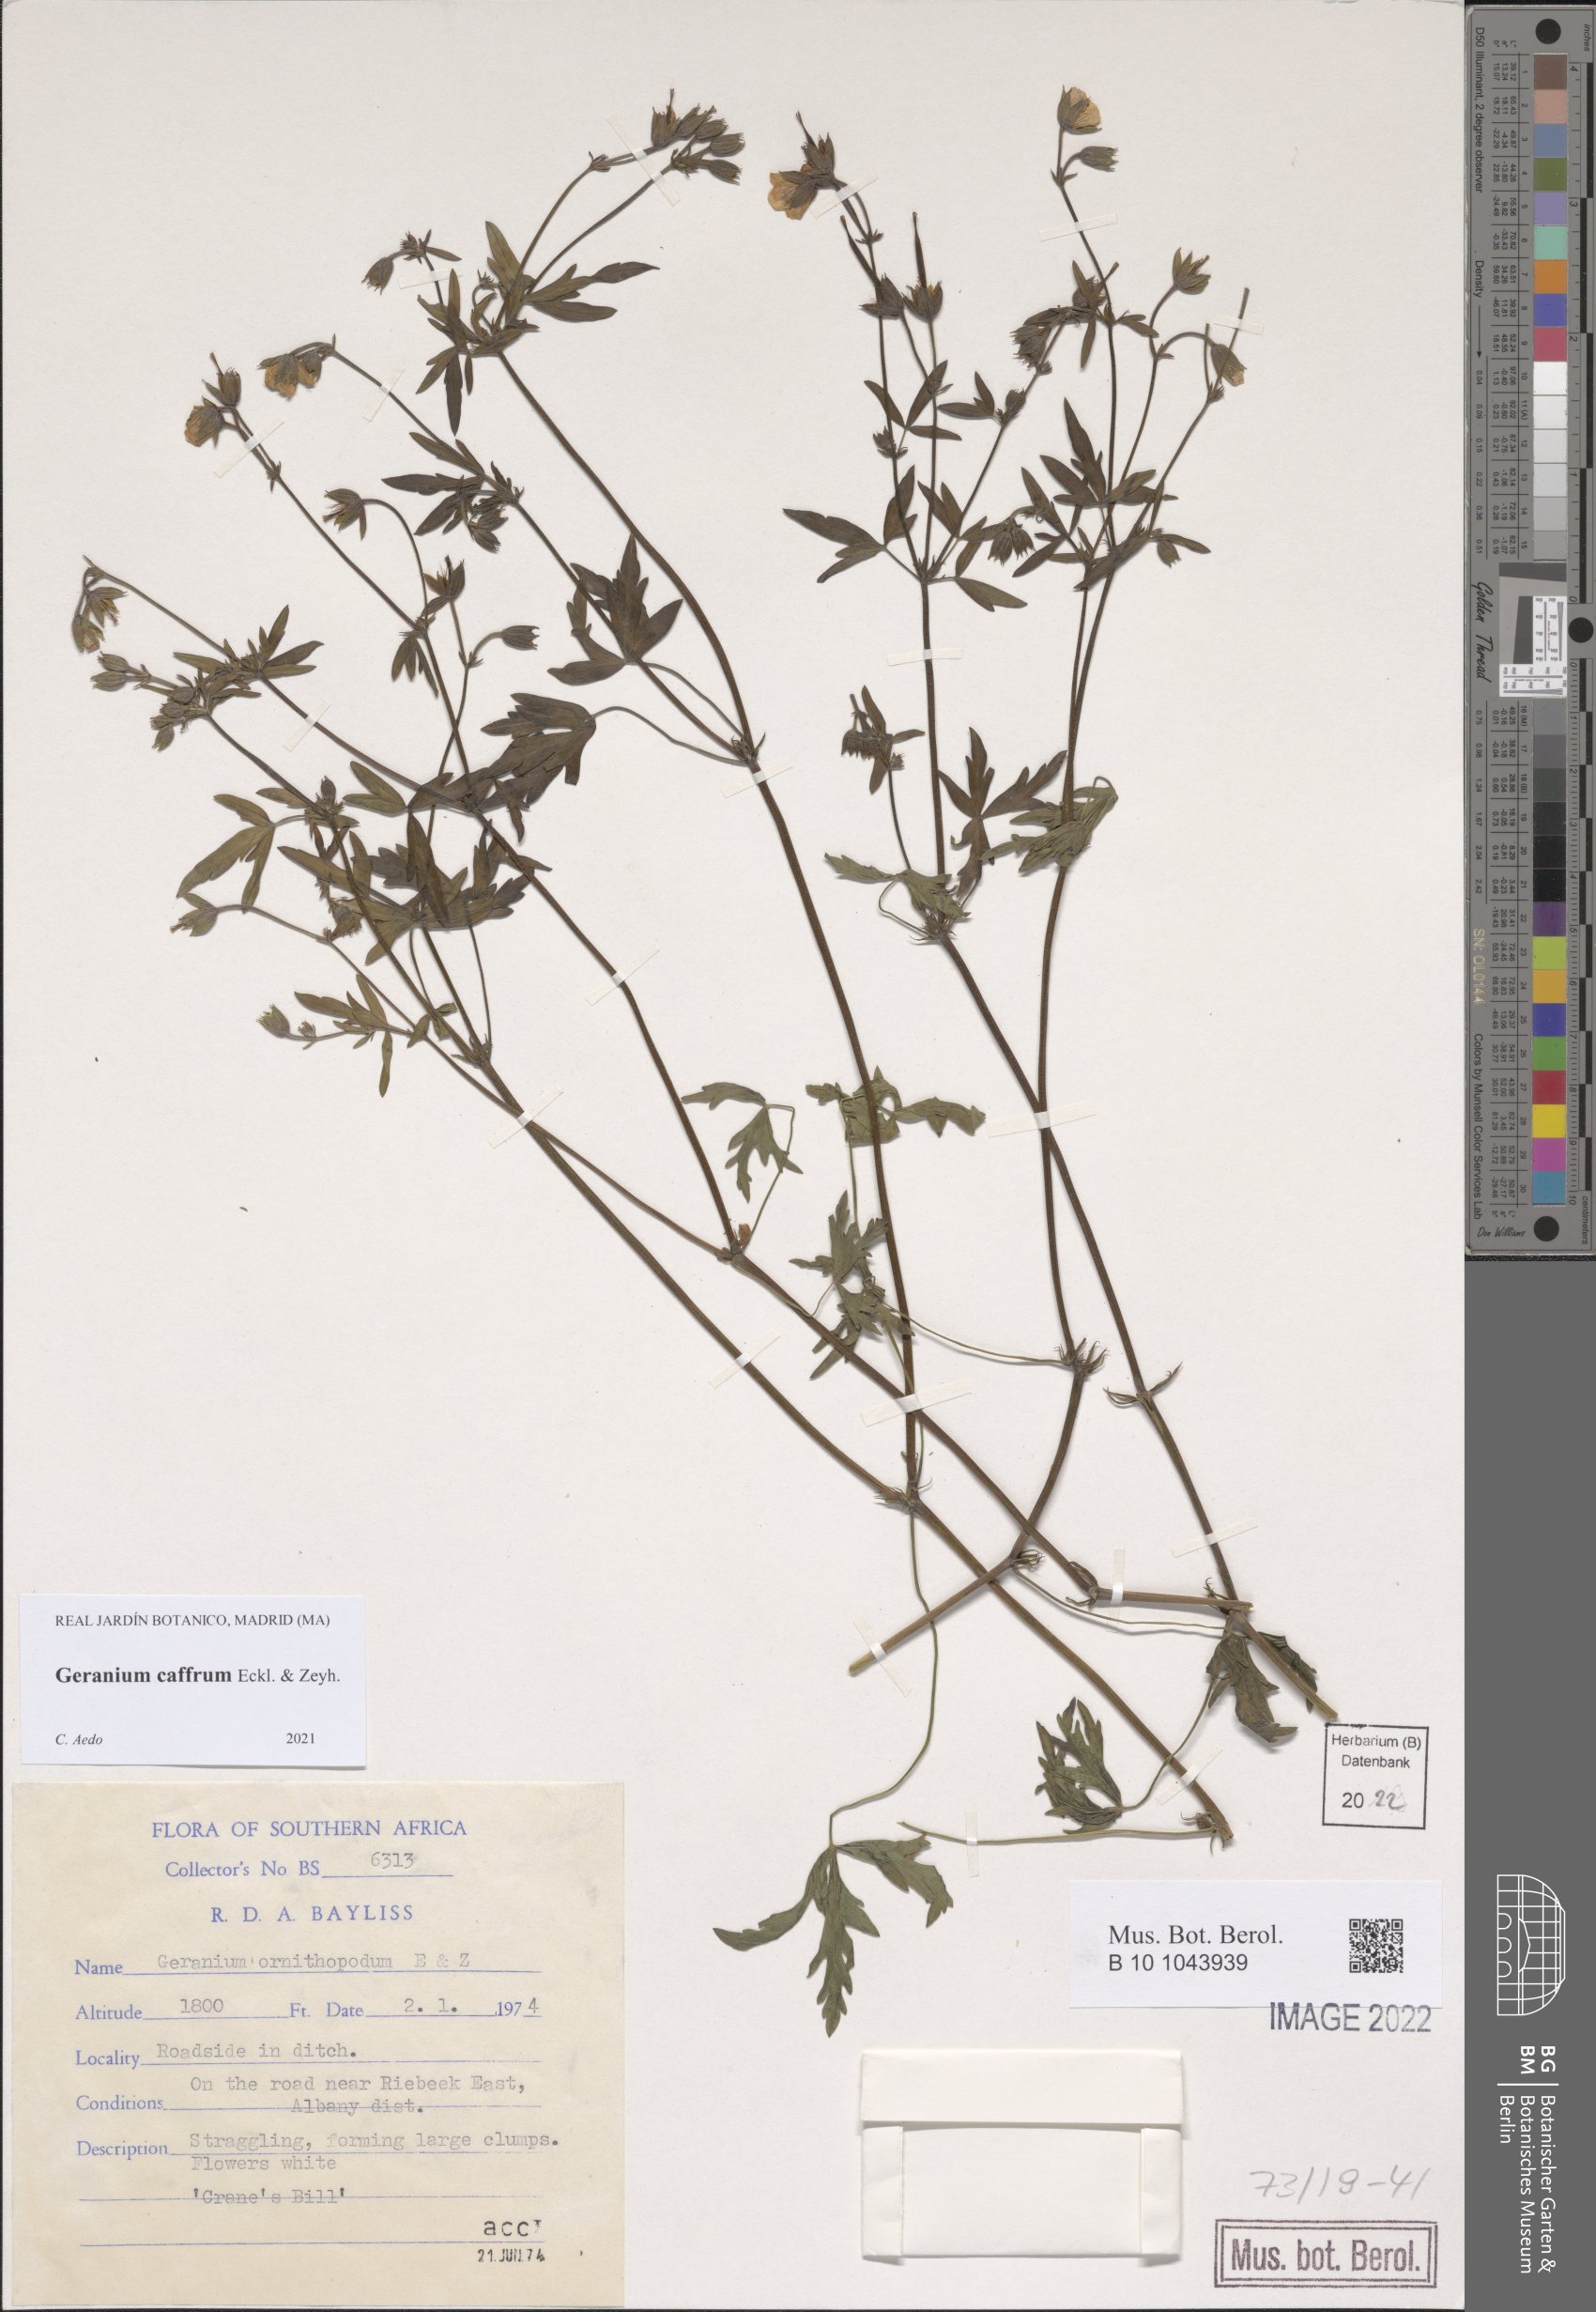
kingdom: Plantae
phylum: Tracheophyta
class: Magnoliopsida
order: Geraniales
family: Geraniaceae
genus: Geranium
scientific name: Geranium caffrum
